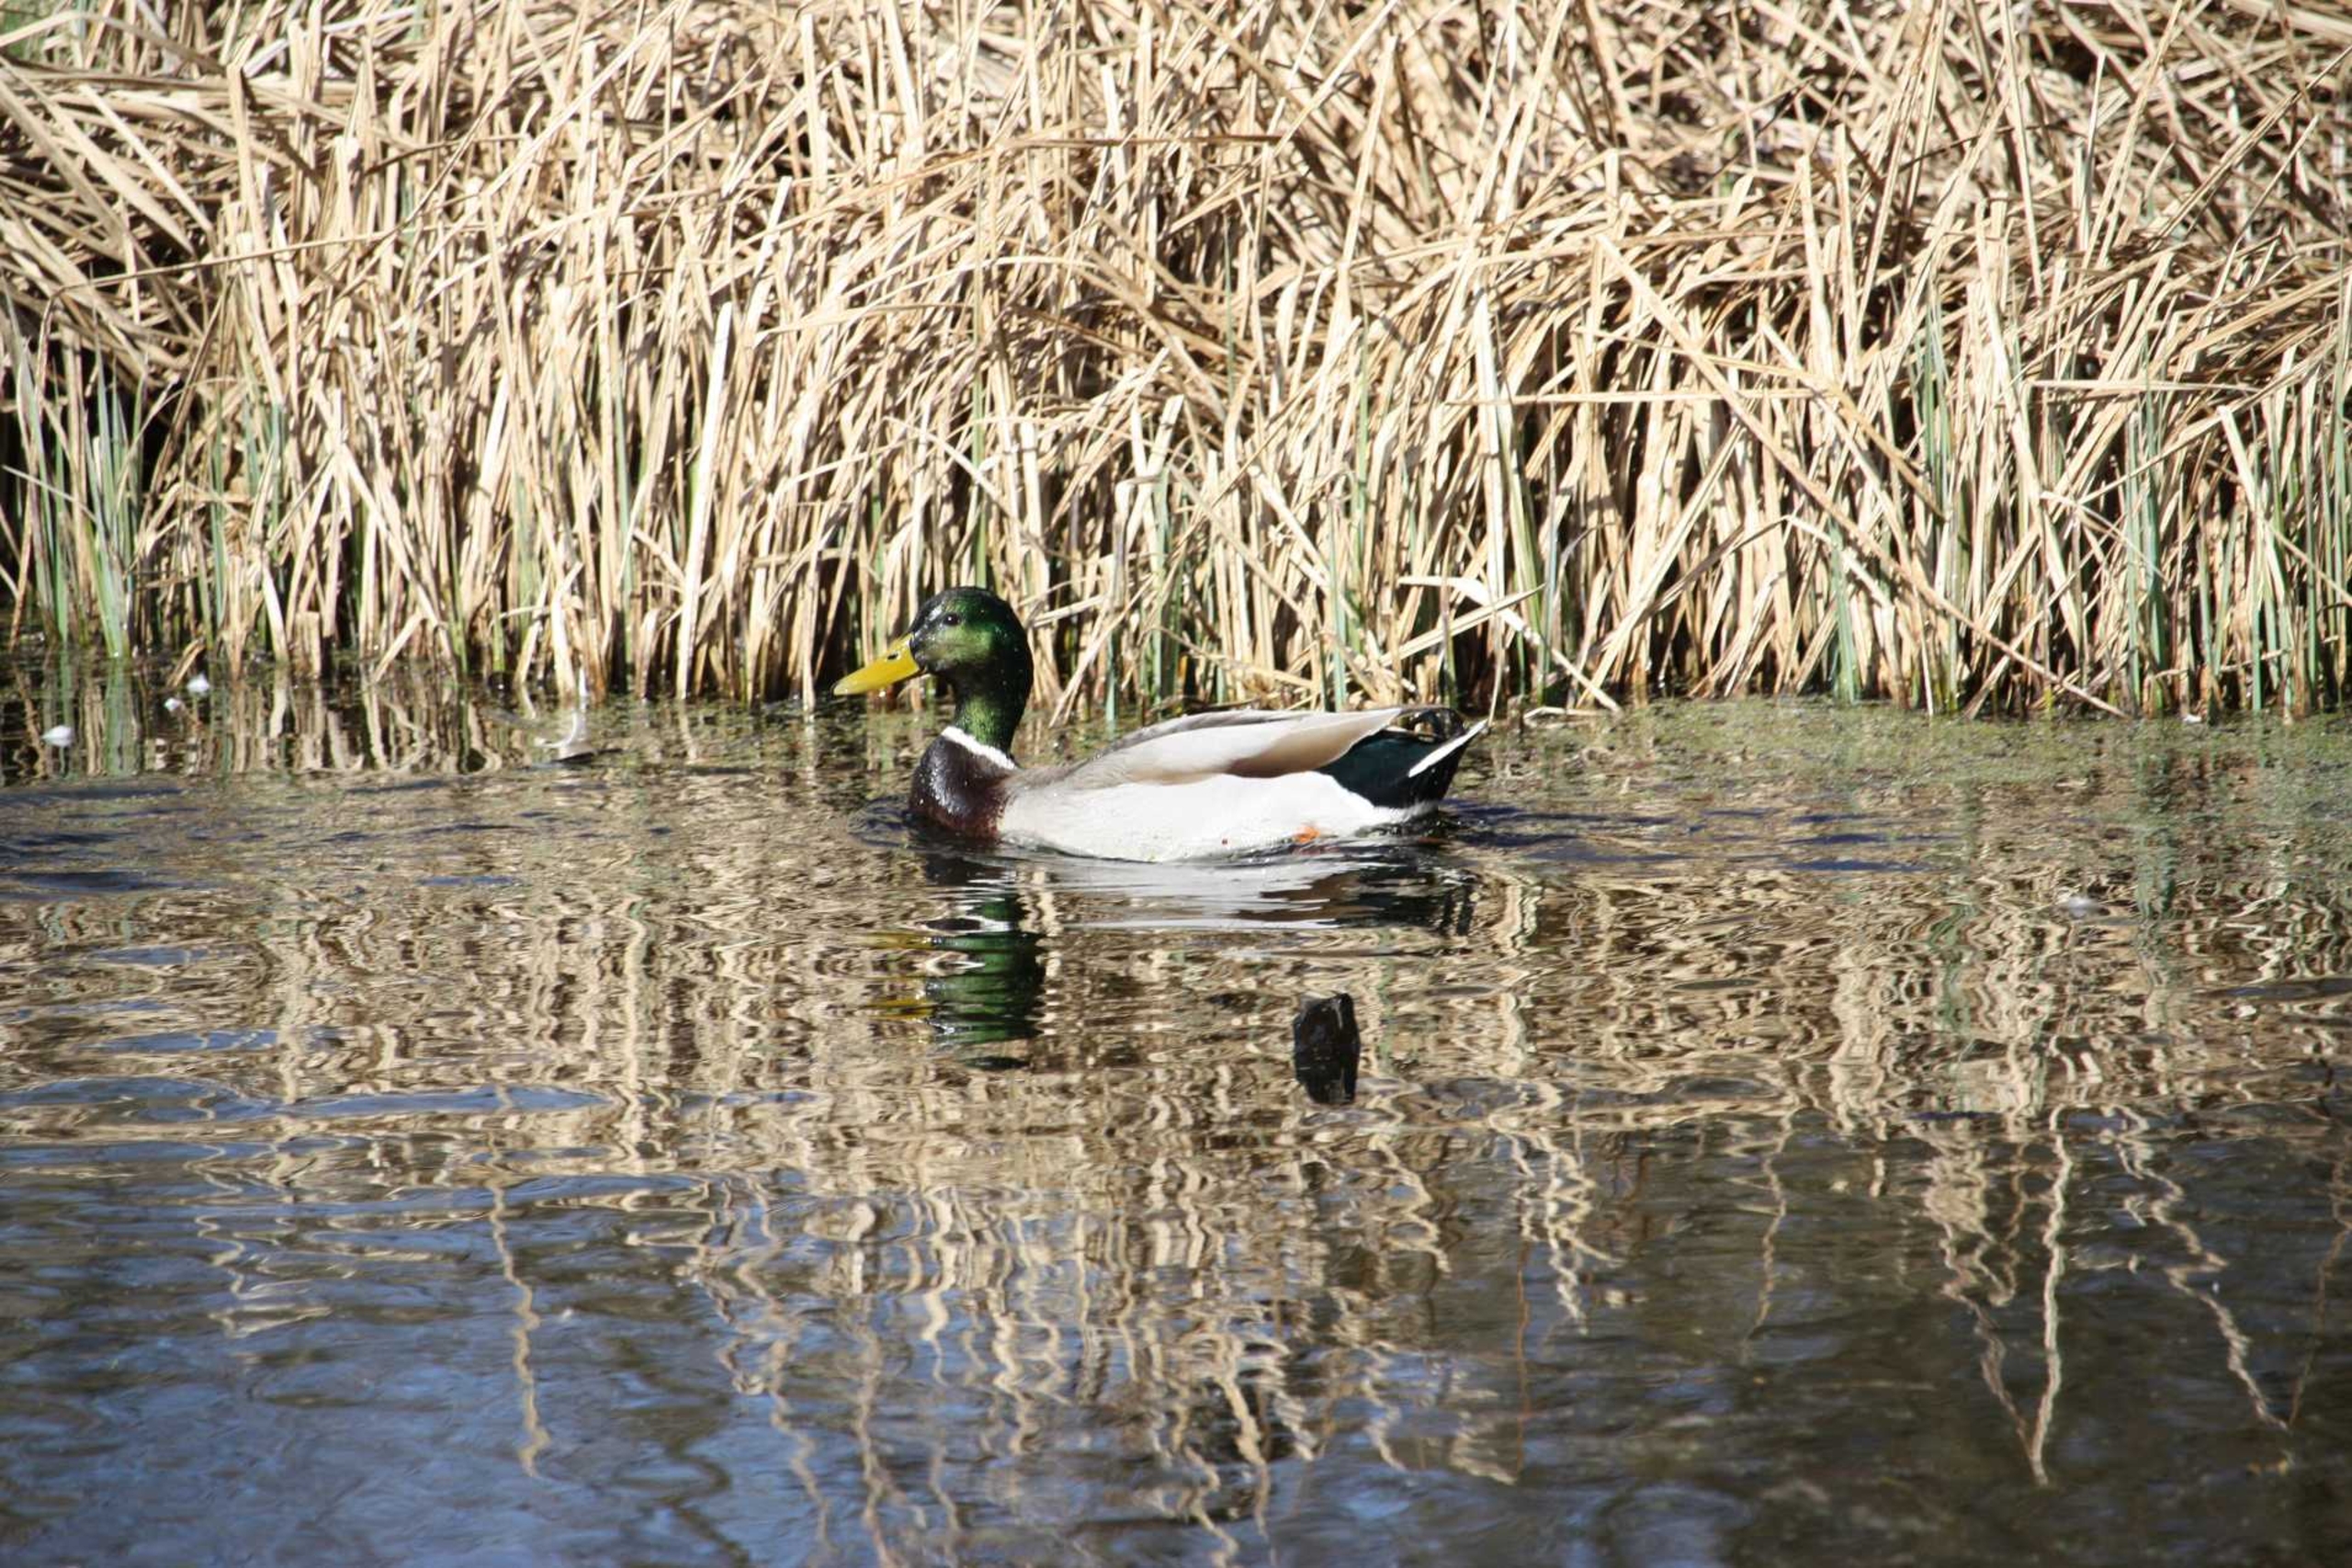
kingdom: Animalia
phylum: Chordata
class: Aves
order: Anseriformes
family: Anatidae
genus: Anas
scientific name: Anas platyrhynchos
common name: Gråand
